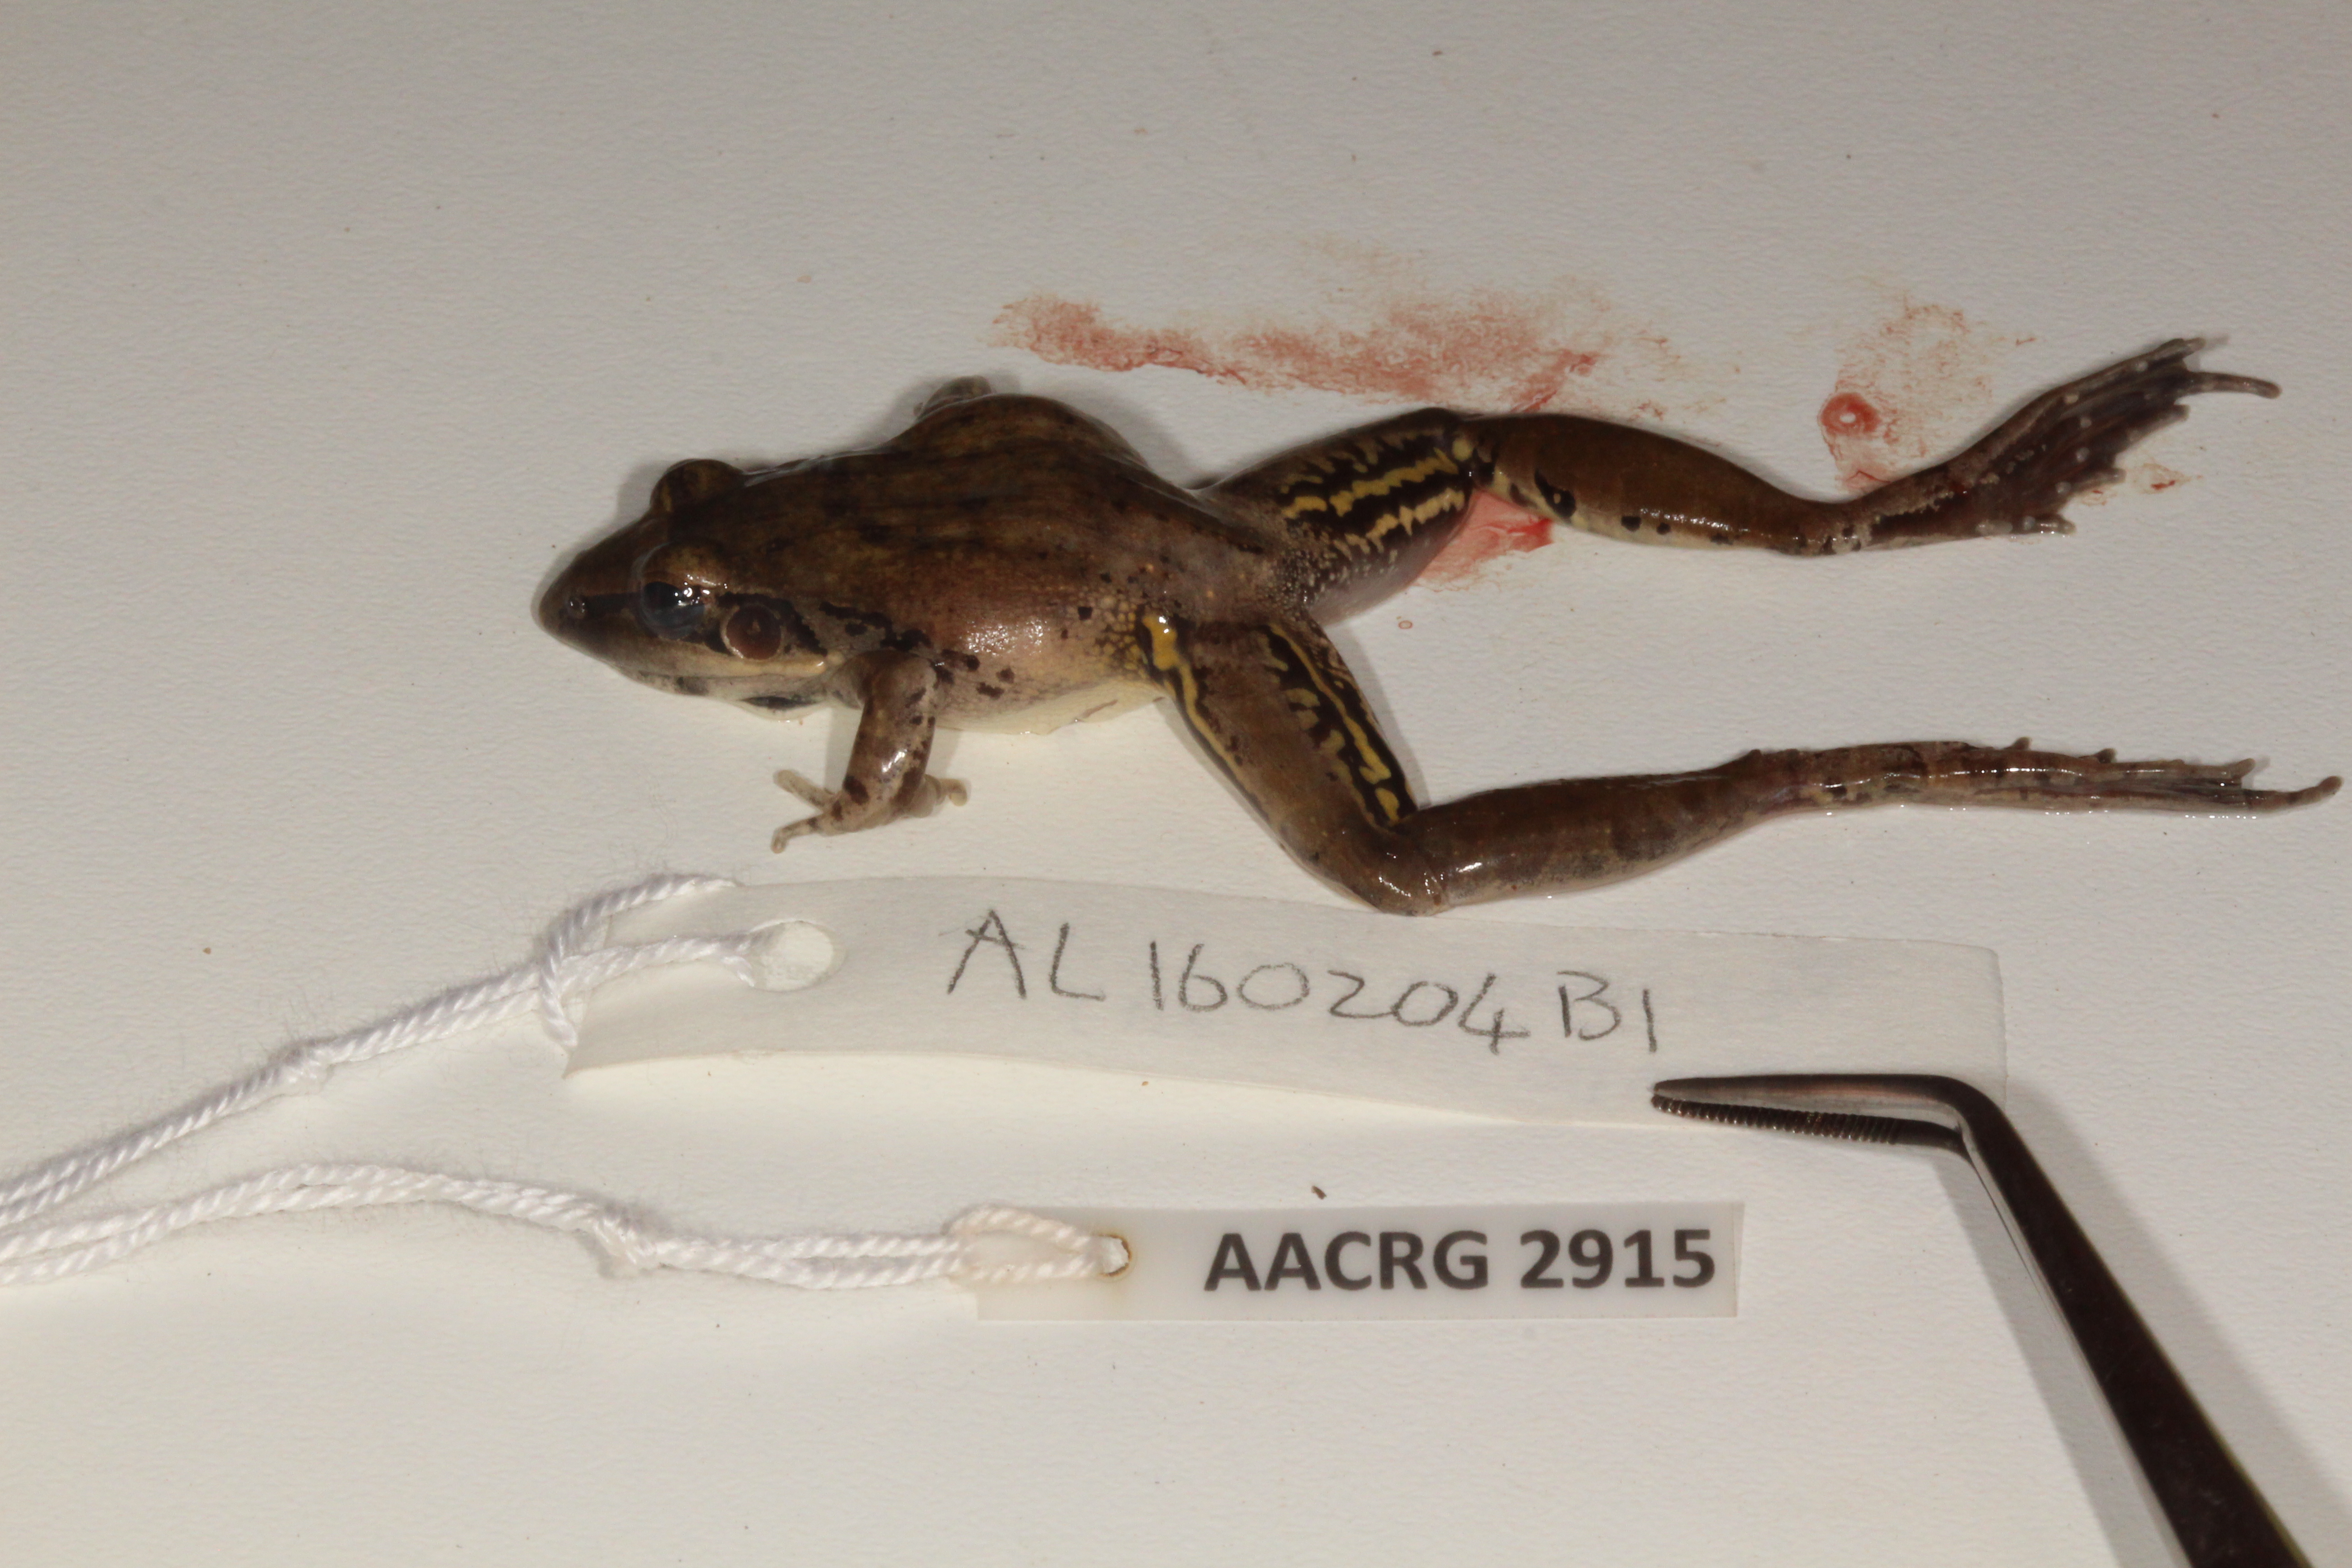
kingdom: Animalia
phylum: Chordata
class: Amphibia
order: Anura
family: Ptychadenidae
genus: Ptychadena
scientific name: Ptychadena anchietae
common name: Anchieta's ridged frog
